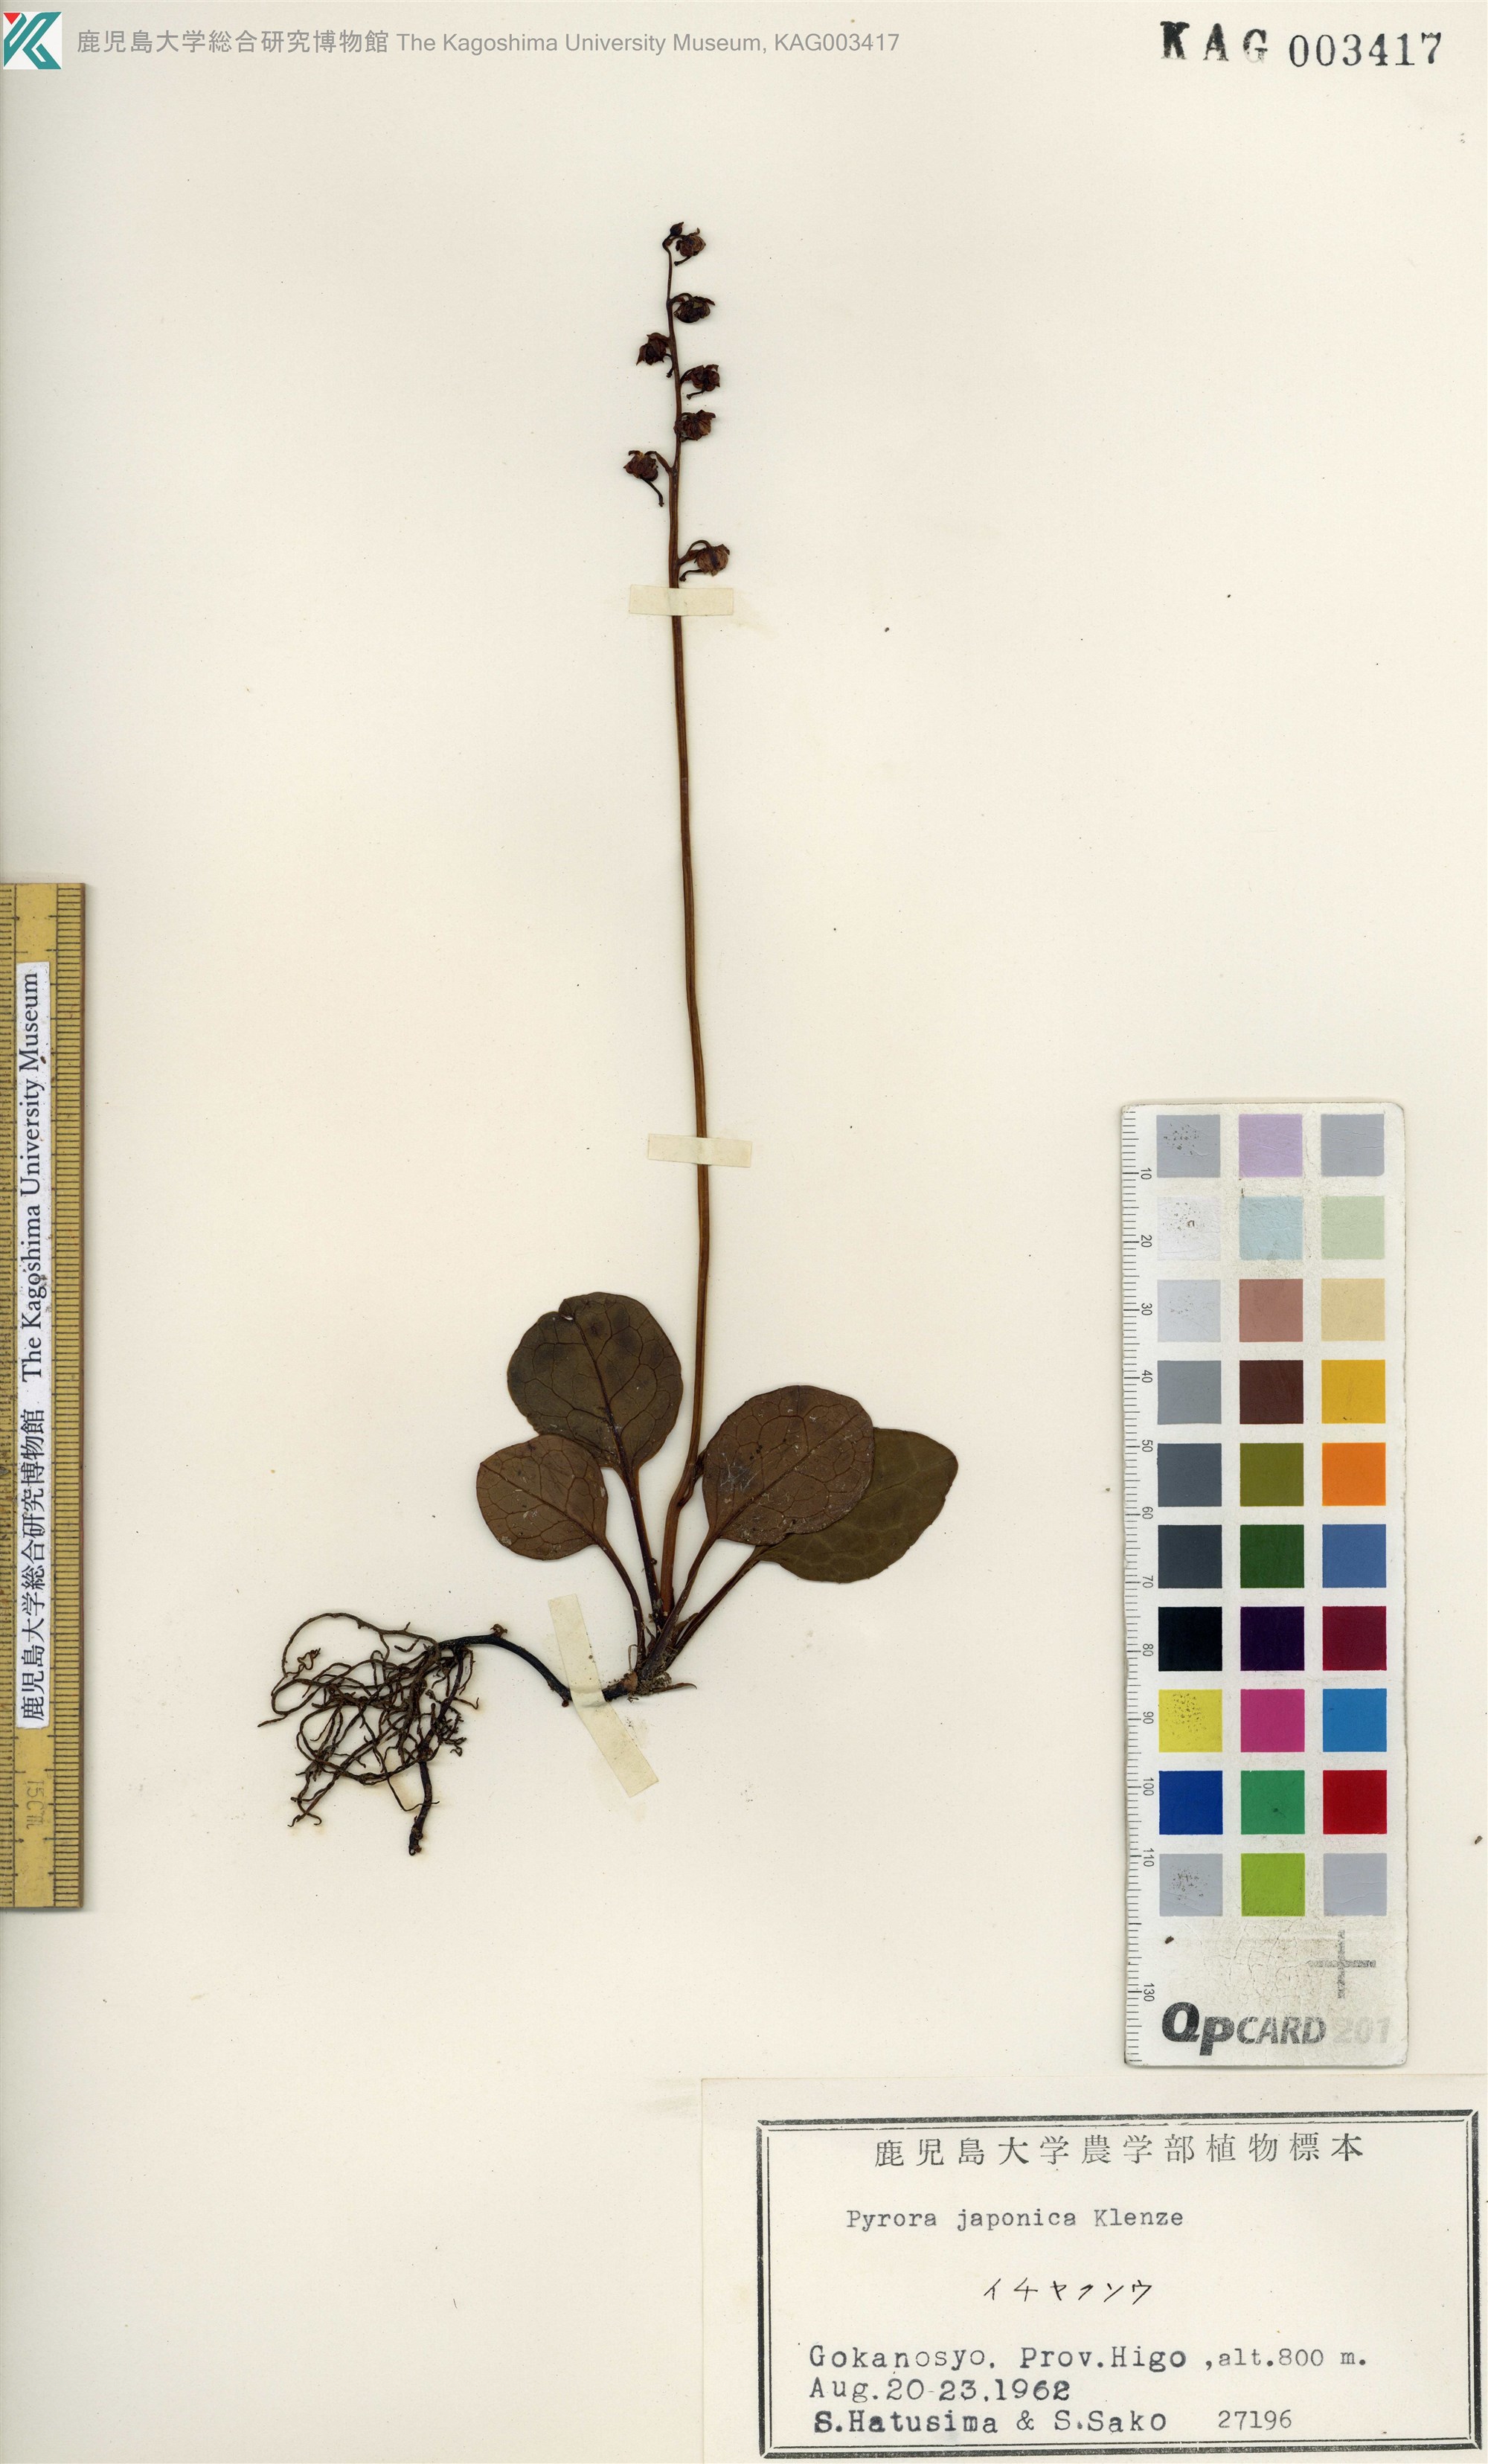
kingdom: Plantae
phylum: Tracheophyta
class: Magnoliopsida
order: Ericales
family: Ericaceae
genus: Pyrola
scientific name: Pyrola japonica
